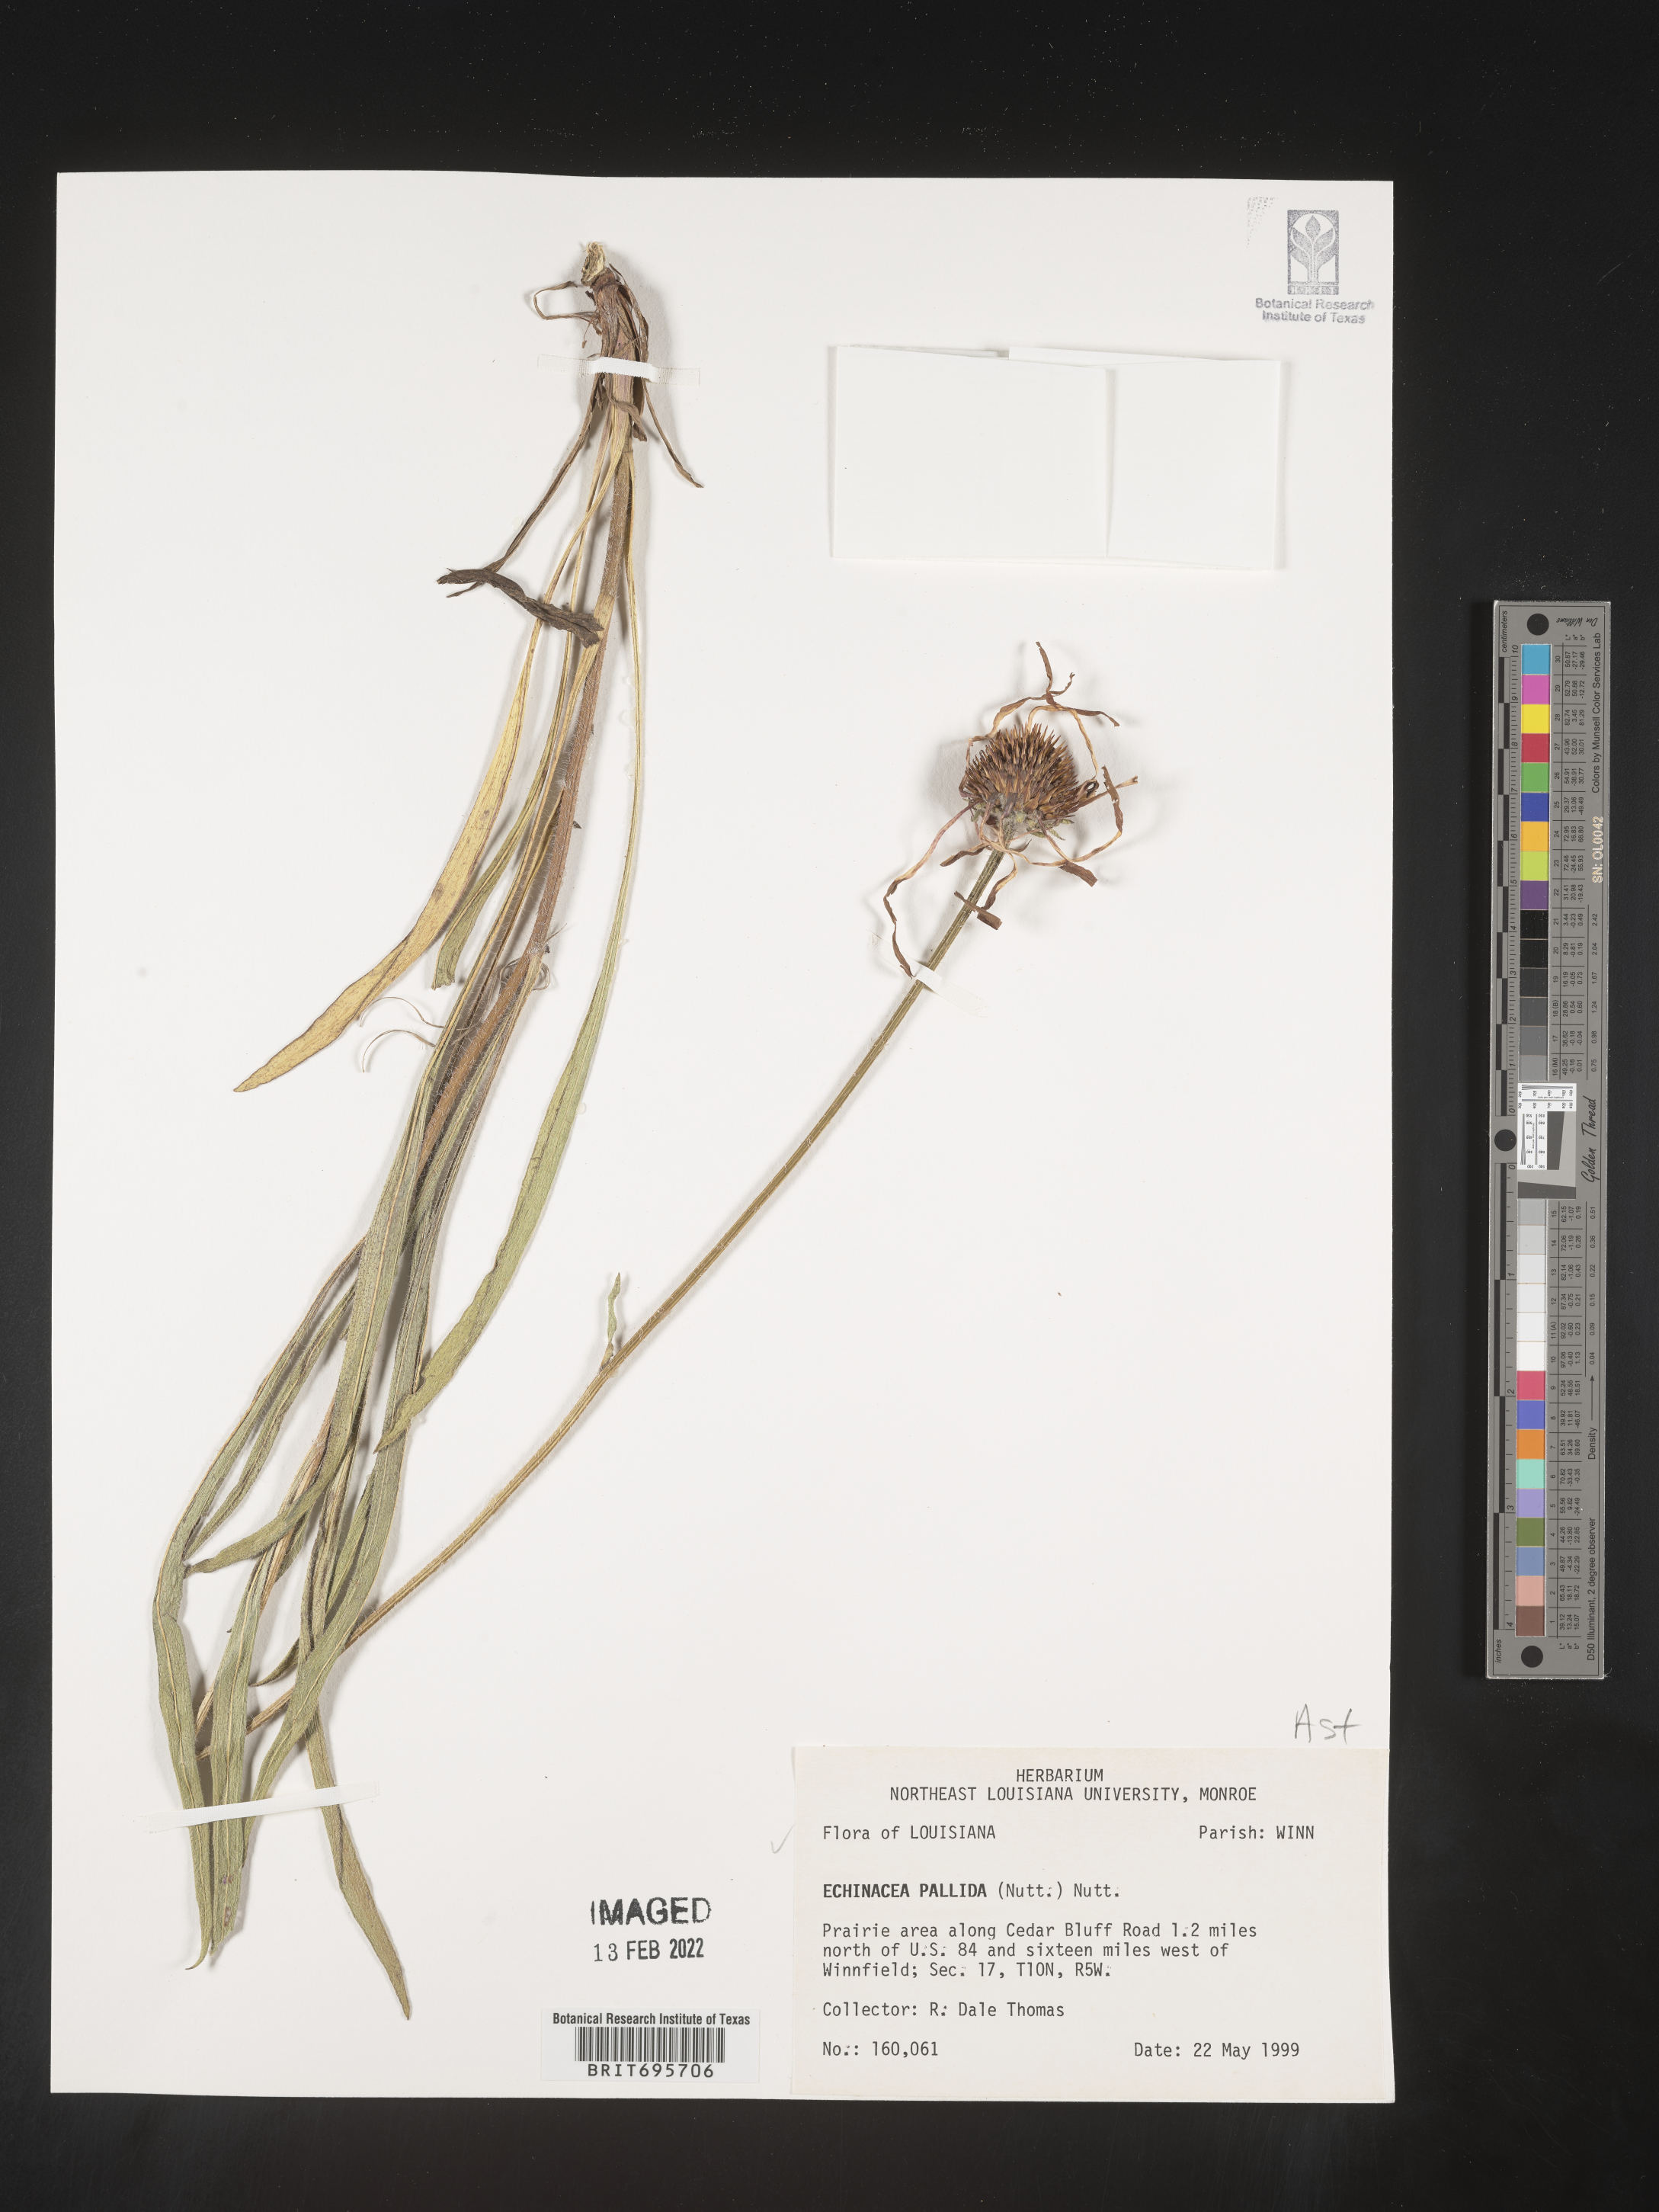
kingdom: Plantae
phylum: Tracheophyta
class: Magnoliopsida
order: Asterales
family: Asteraceae
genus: Echinacea
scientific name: Echinacea pallida
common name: Pale echinacea
